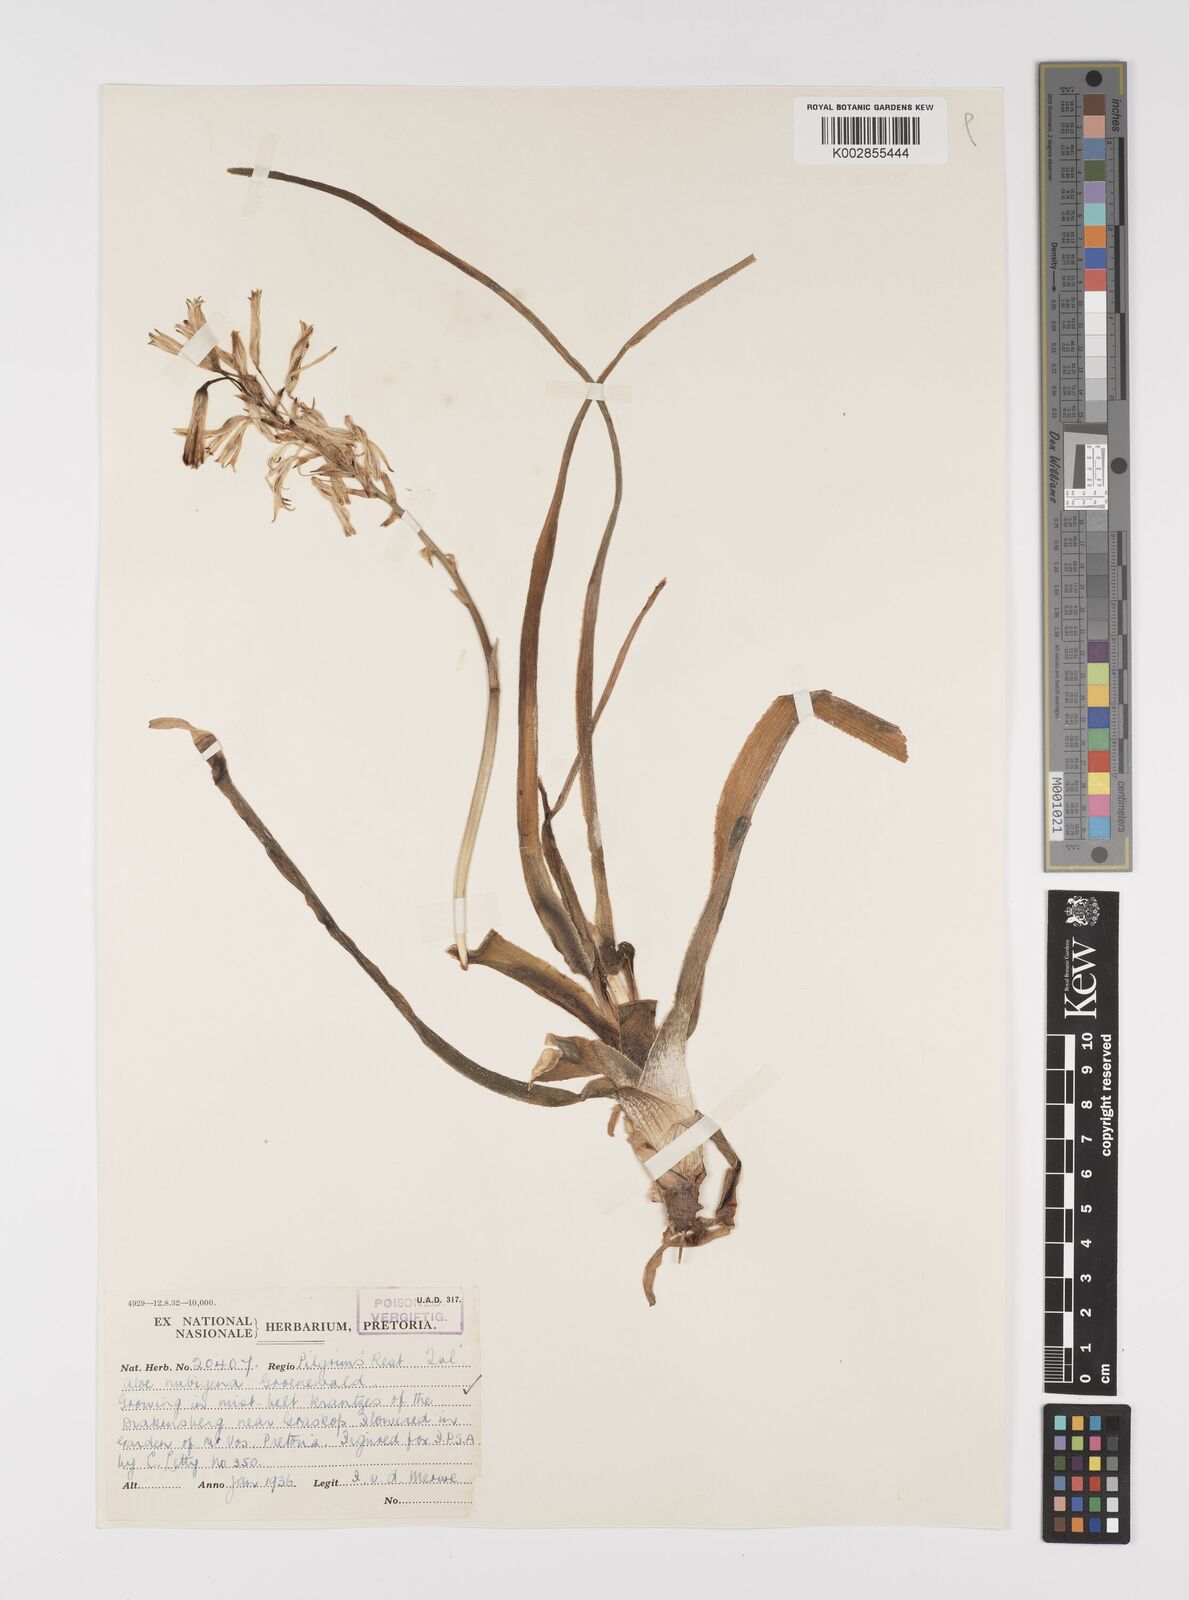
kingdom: Plantae
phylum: Tracheophyta
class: Liliopsida
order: Asparagales
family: Asphodelaceae
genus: Aloe
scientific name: Aloe nubigena
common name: Cloud-borne aloe
